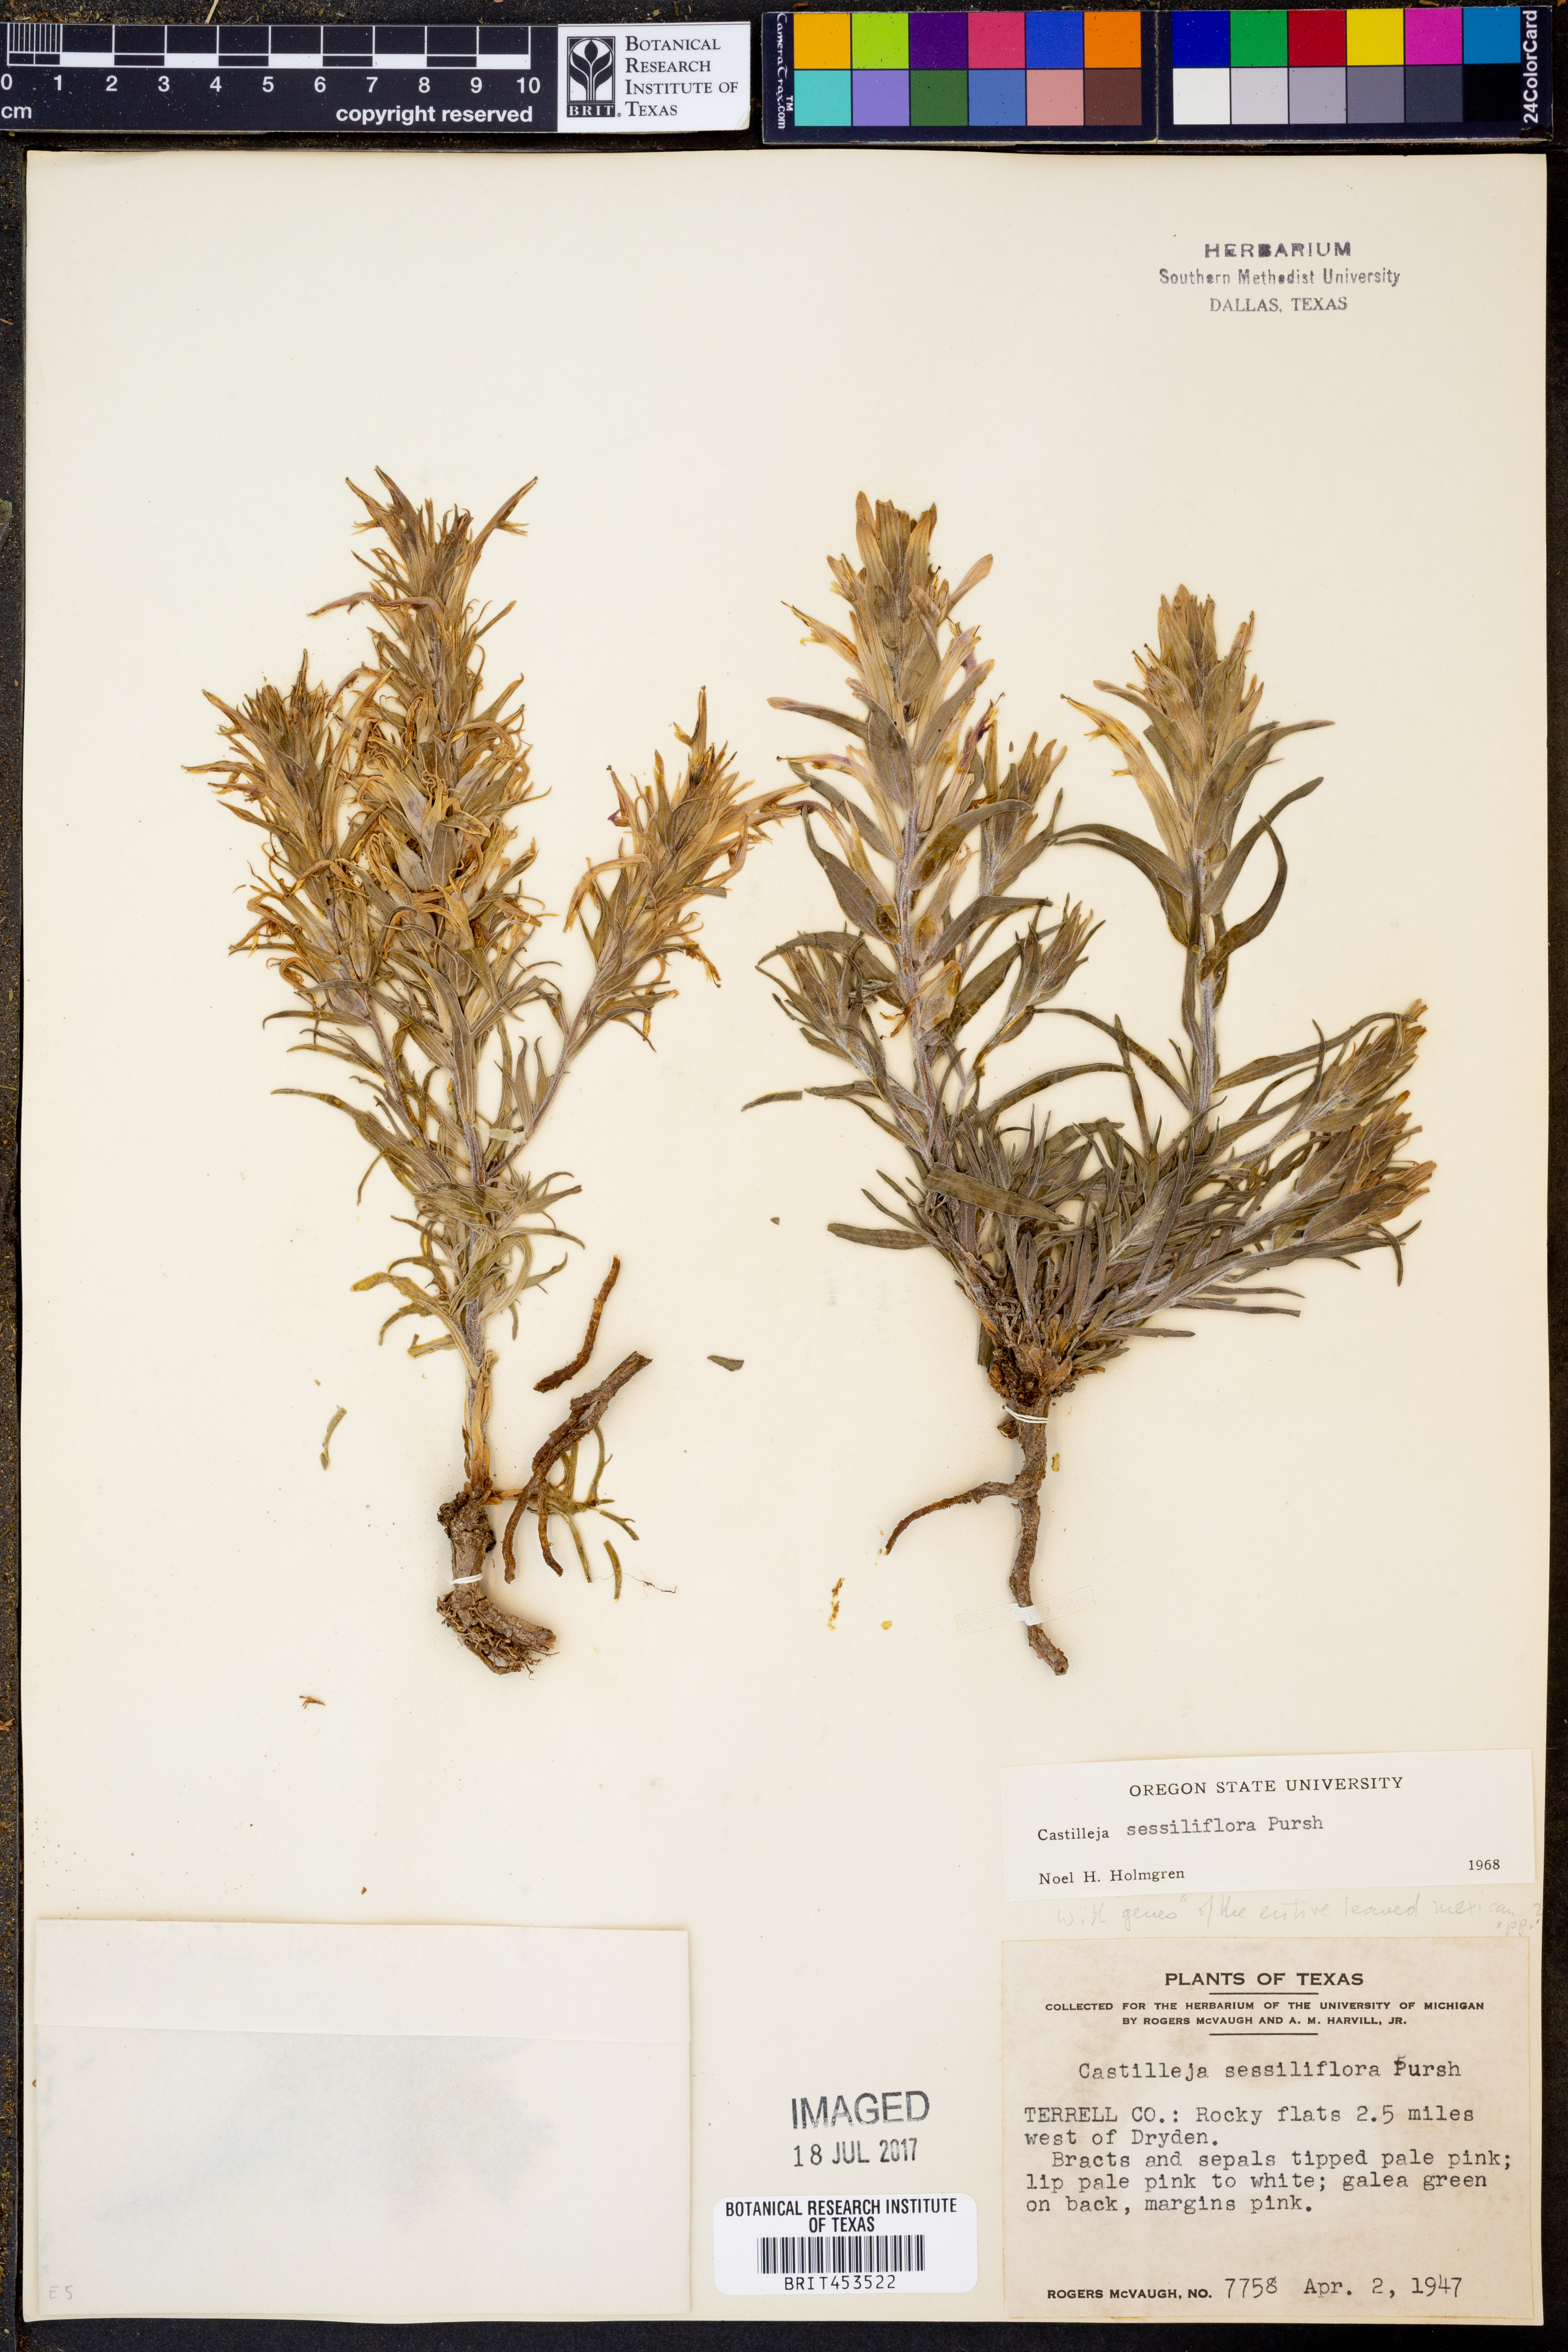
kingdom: Plantae
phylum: Tracheophyta
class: Magnoliopsida
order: Lamiales
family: Orobanchaceae
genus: Castilleja
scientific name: Castilleja sessiliflora
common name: Downy paintbrush
